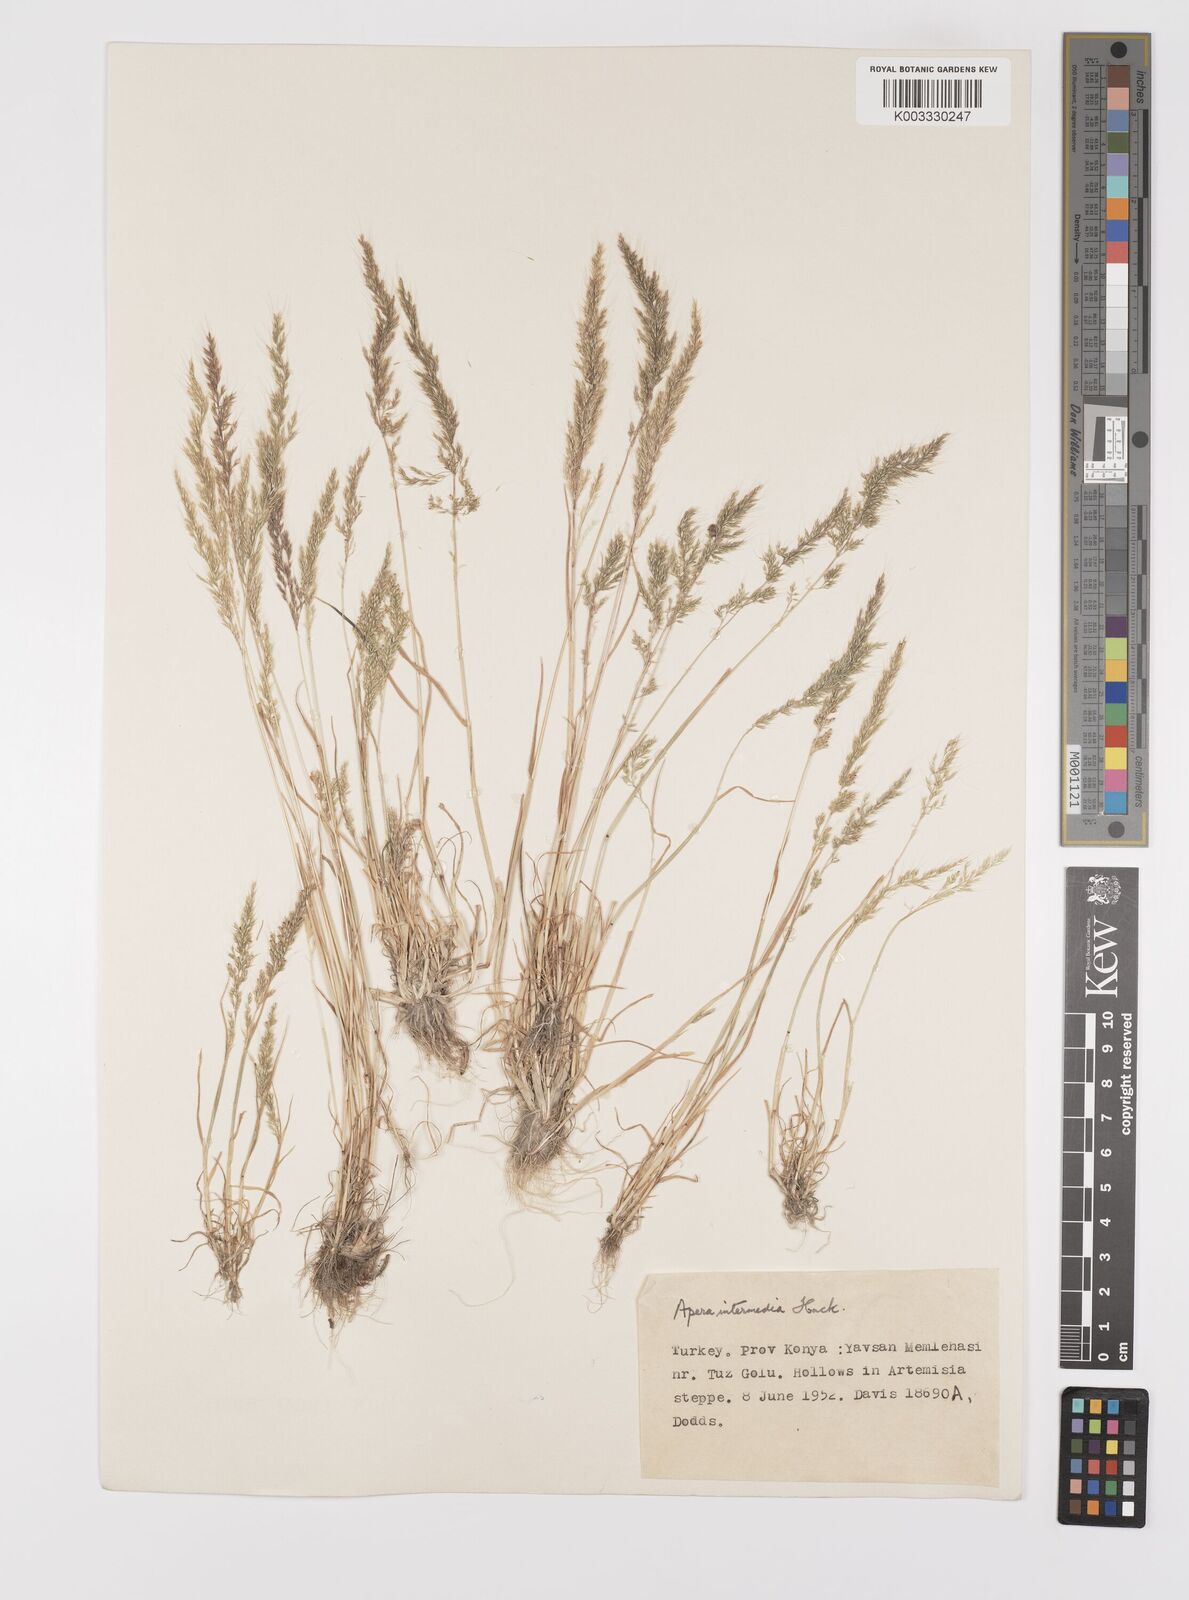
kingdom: Plantae
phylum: Tracheophyta
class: Liliopsida
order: Poales
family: Poaceae
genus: Apera
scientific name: Apera intermedia
